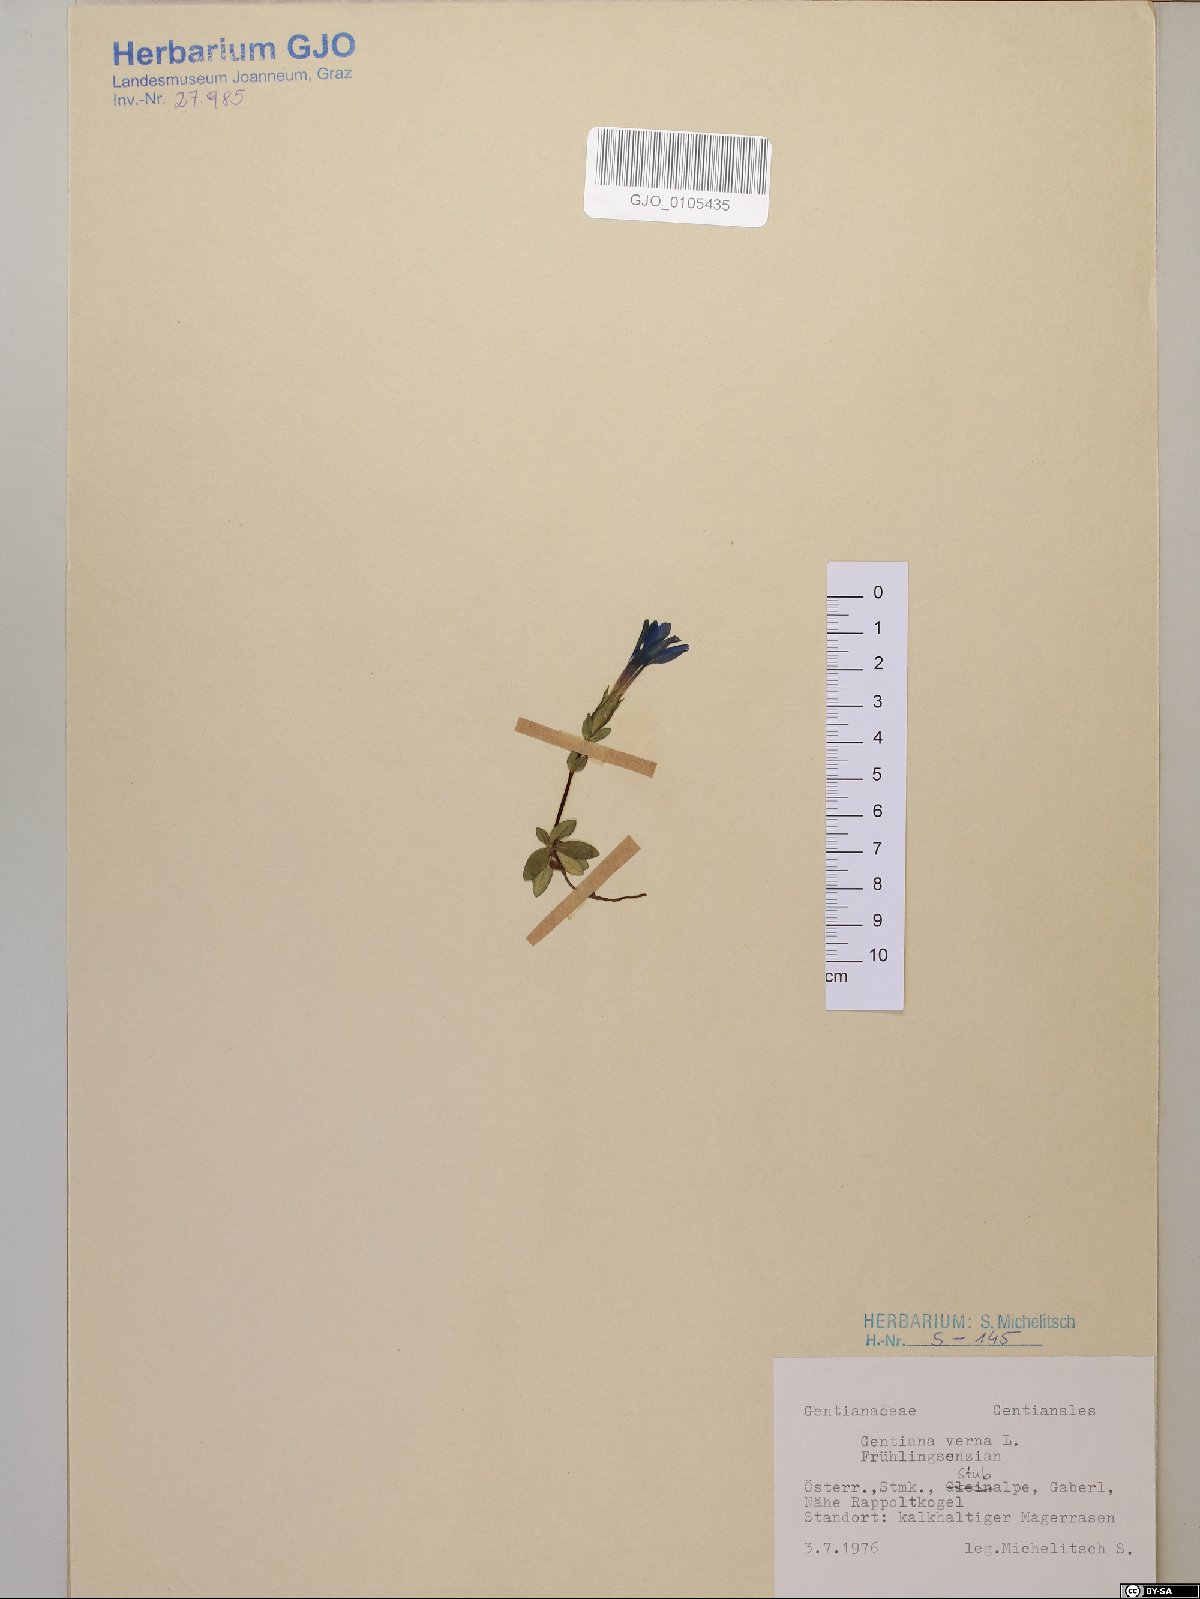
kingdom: Plantae
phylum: Tracheophyta
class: Magnoliopsida
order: Gentianales
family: Gentianaceae
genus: Gentiana
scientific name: Gentiana verna
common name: Spring gentian
